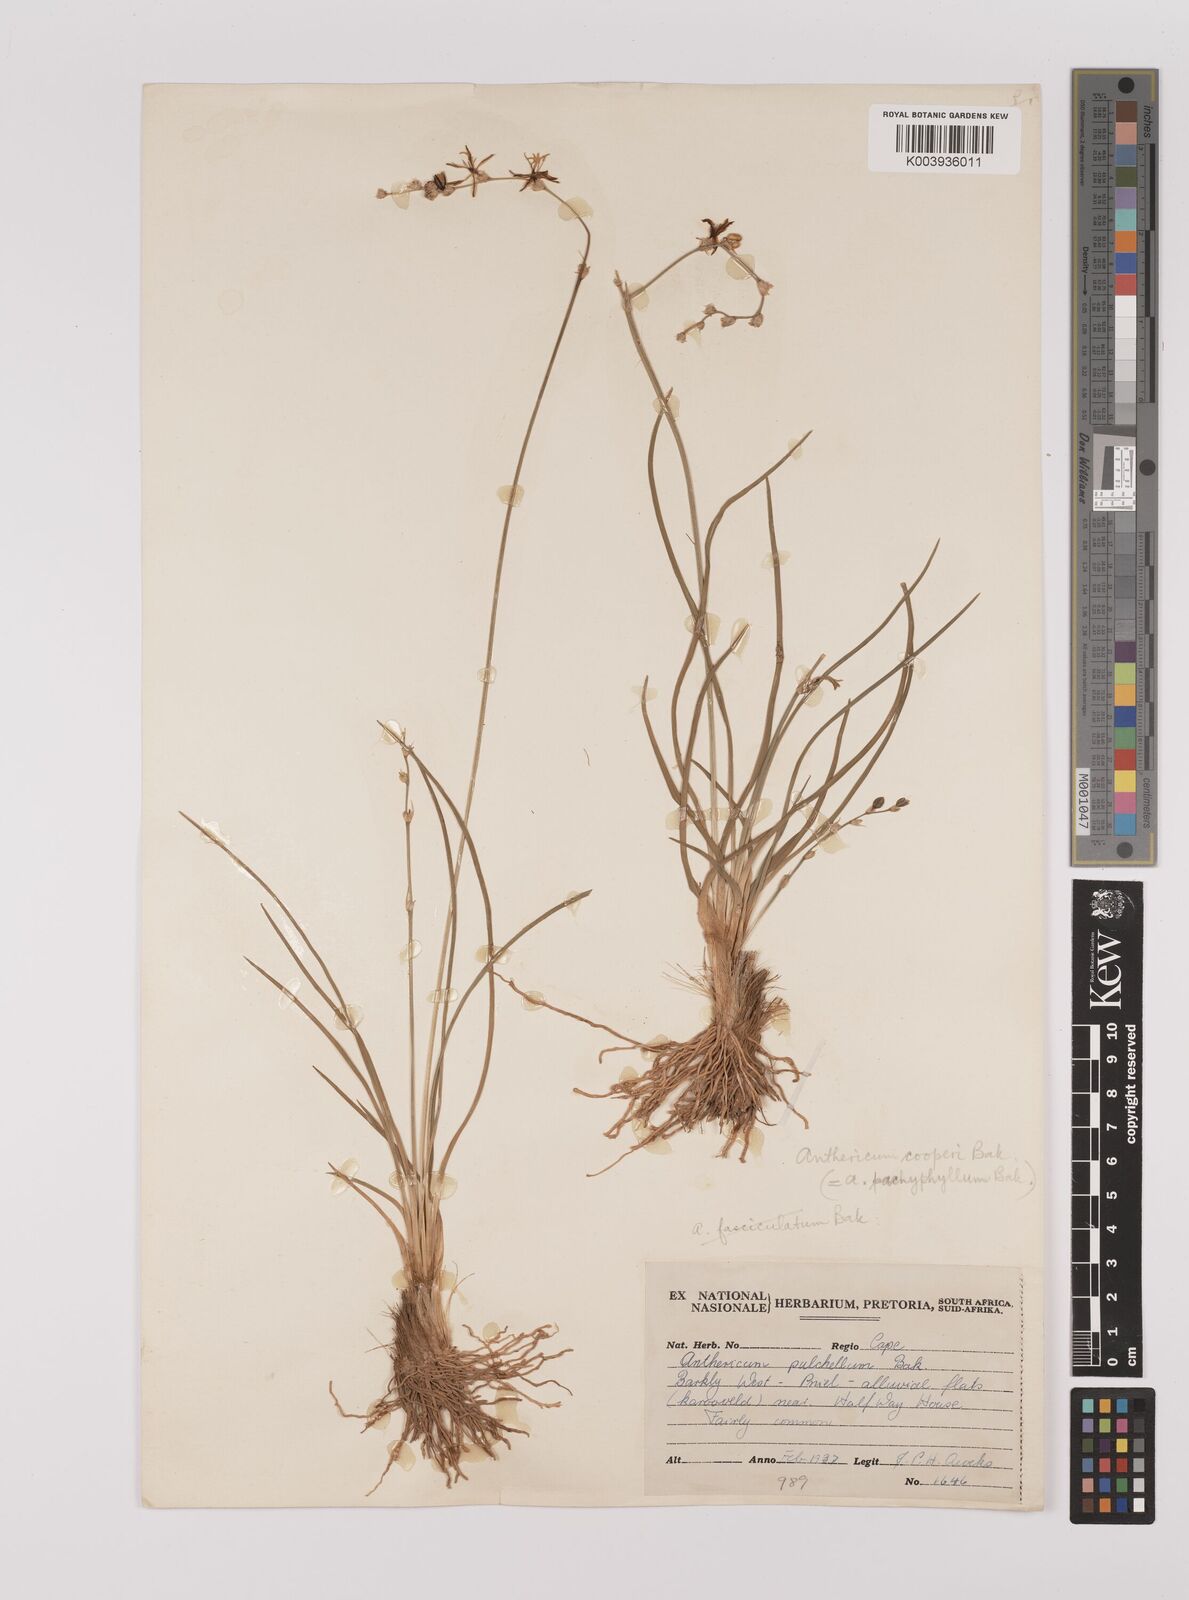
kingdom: Plantae
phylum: Tracheophyta
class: Liliopsida
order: Asparagales
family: Asparagaceae
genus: Chlorophytum
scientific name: Chlorophytum cooperi
